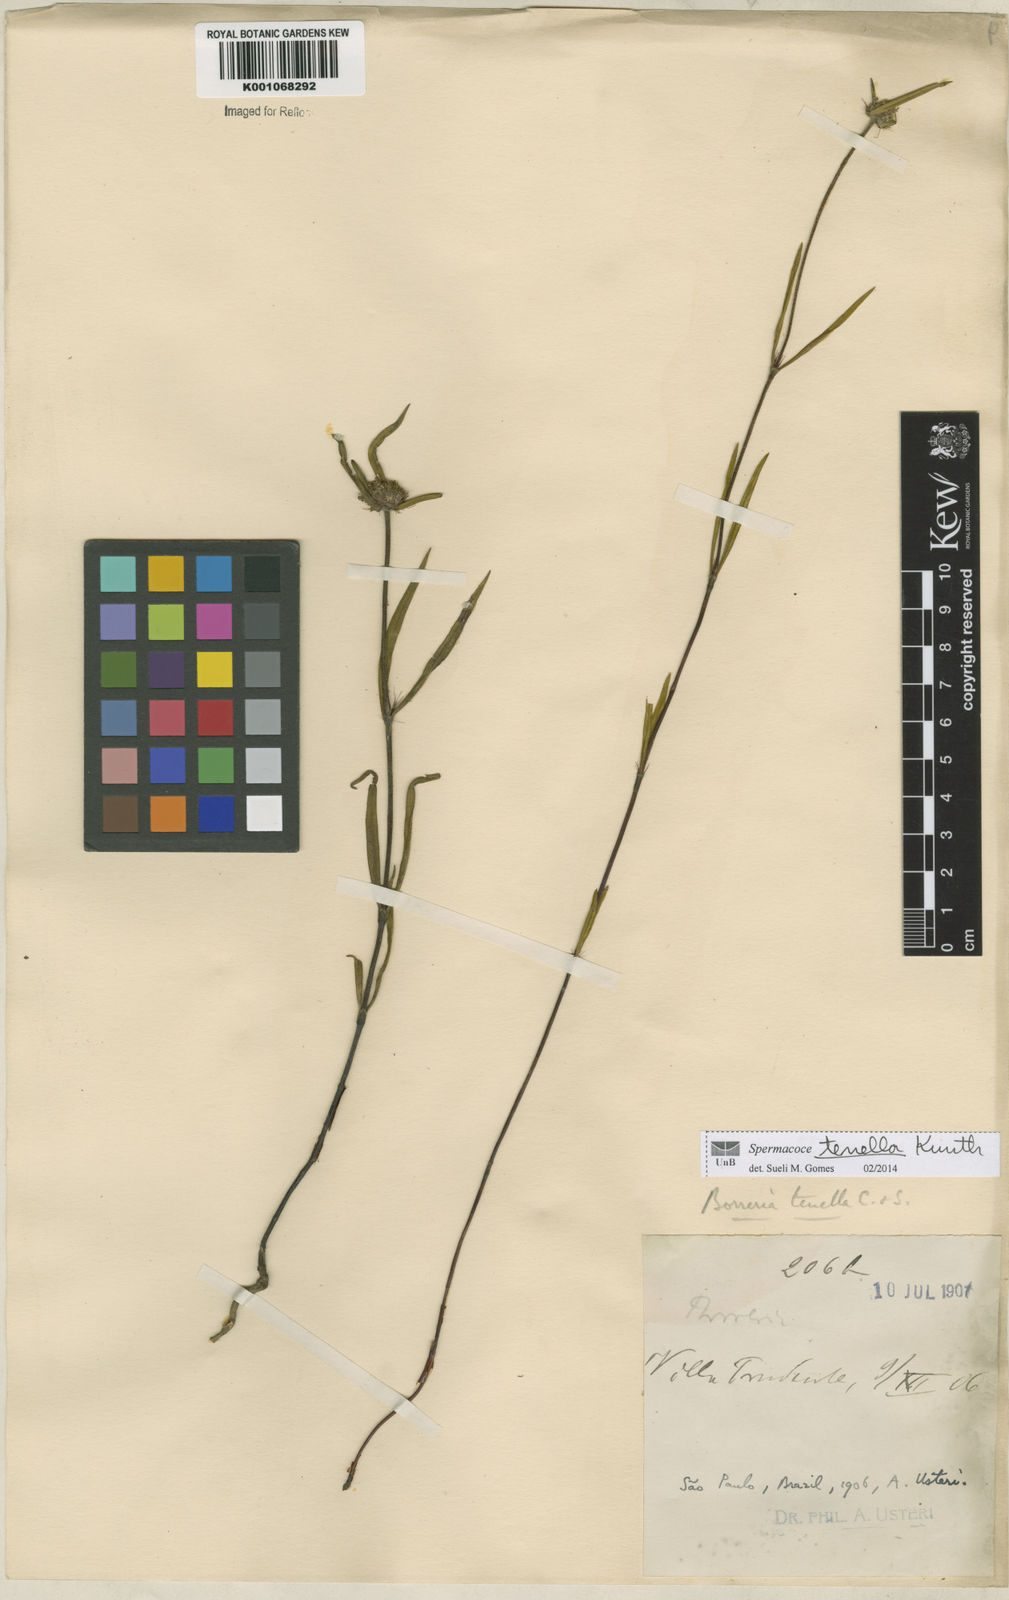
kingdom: Plantae
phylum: Tracheophyta
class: Magnoliopsida
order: Gentianales
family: Rubiaceae
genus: Spermacoce
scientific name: Spermacoce orinocensis
